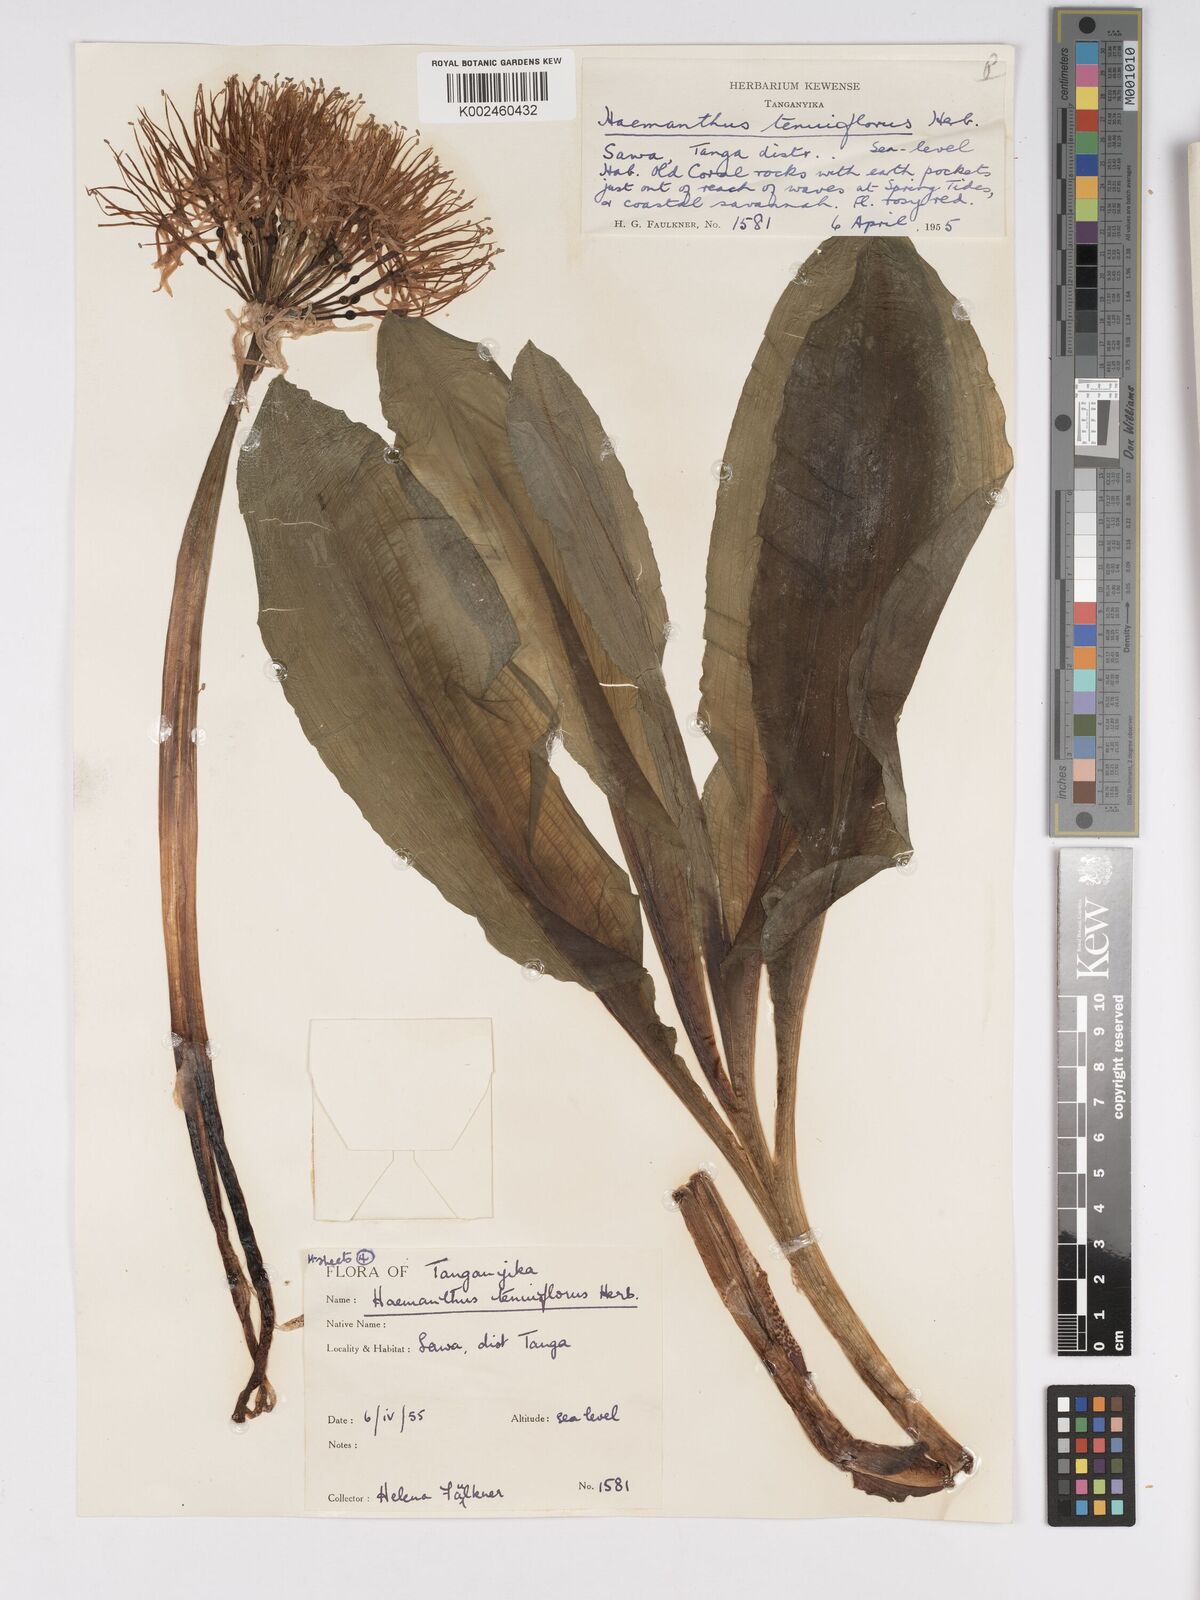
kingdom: Plantae
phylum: Tracheophyta
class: Liliopsida
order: Asparagales
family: Amaryllidaceae
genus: Scadoxus
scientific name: Scadoxus multiflorus
